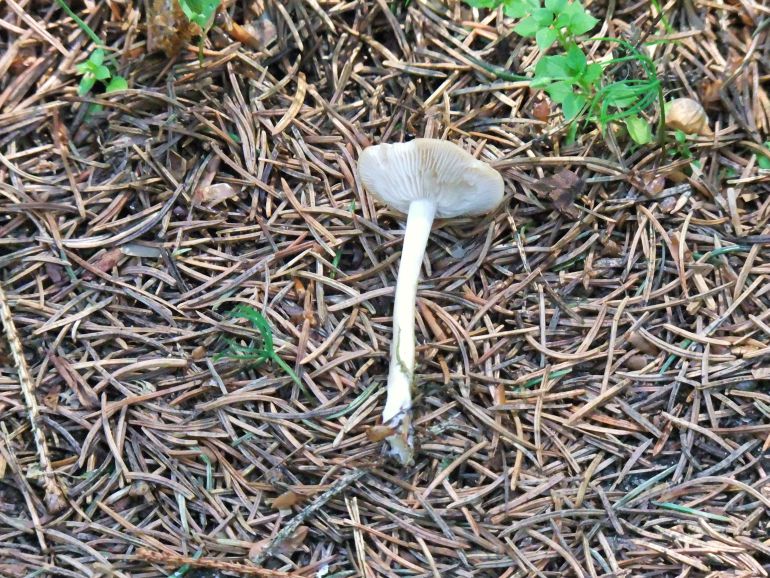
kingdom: Fungi
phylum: Basidiomycota
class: Agaricomycetes
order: Agaricales
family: Tricholomataceae
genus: Clitocybe
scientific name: Clitocybe fragrans
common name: vellugtende tragthat
